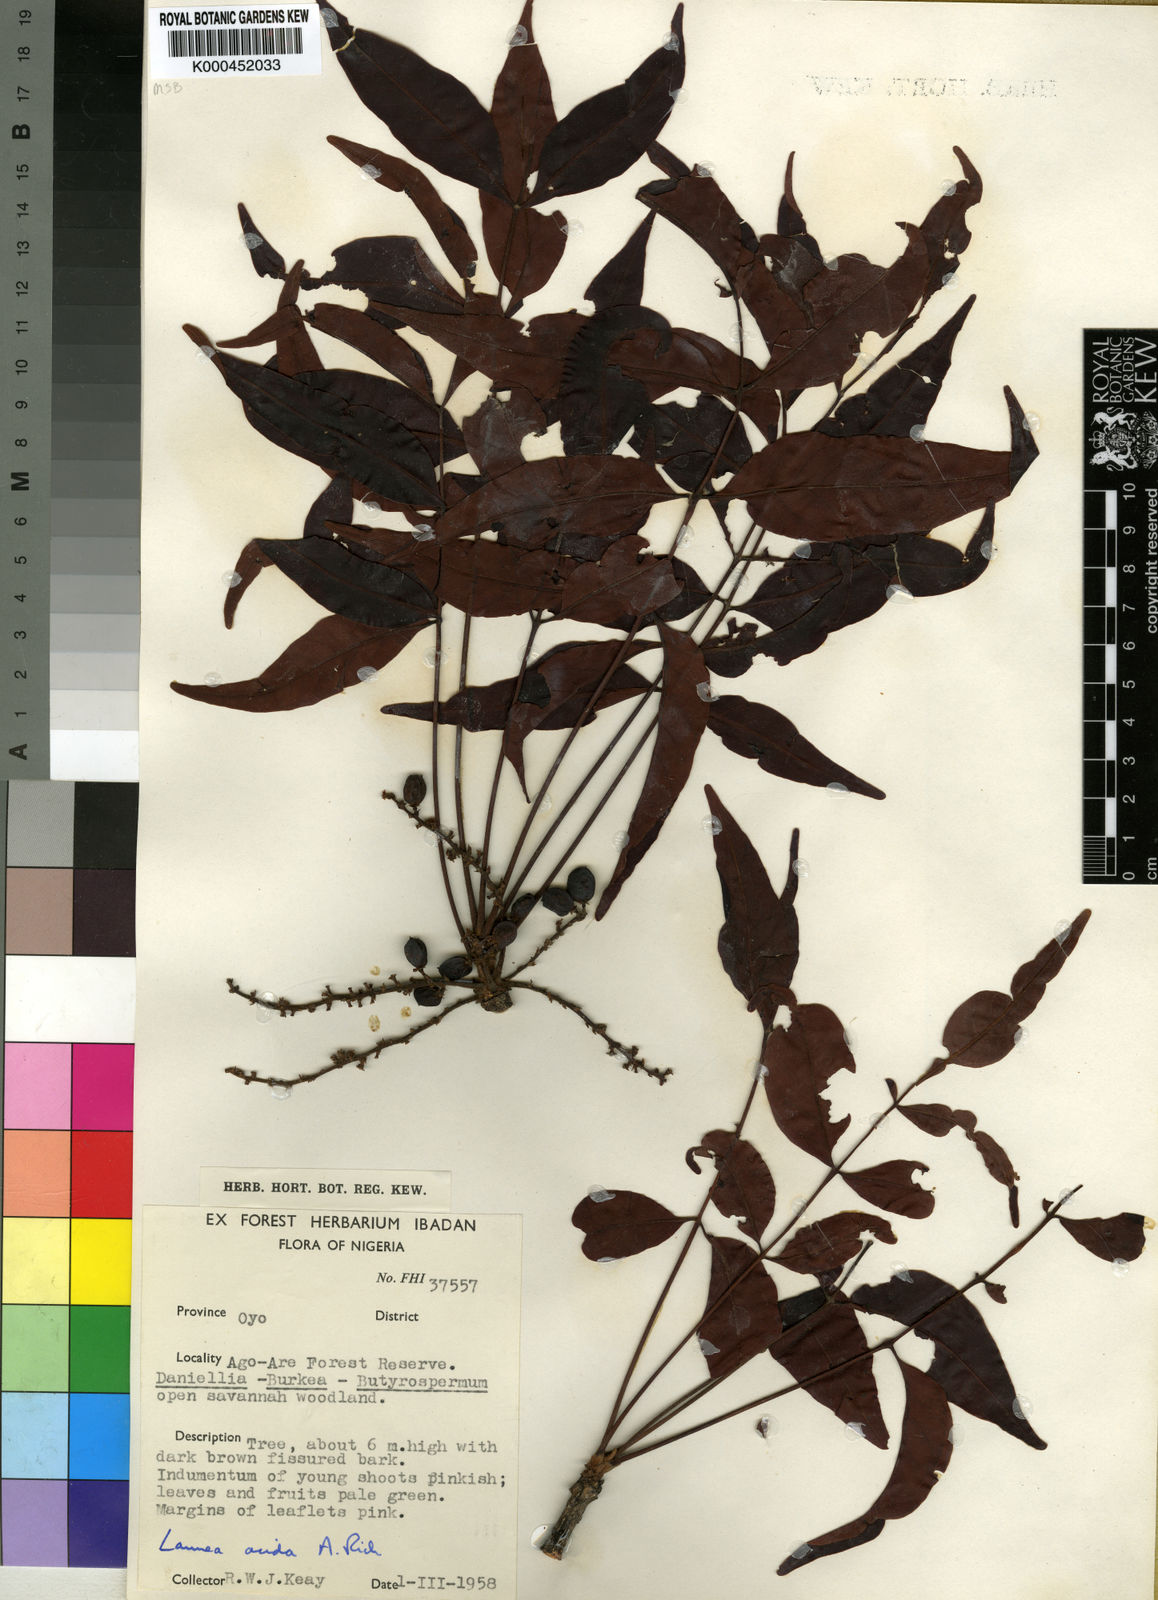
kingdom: Plantae
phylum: Tracheophyta
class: Magnoliopsida
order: Sapindales
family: Anacardiaceae
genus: Lannea
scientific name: Lannea acida
